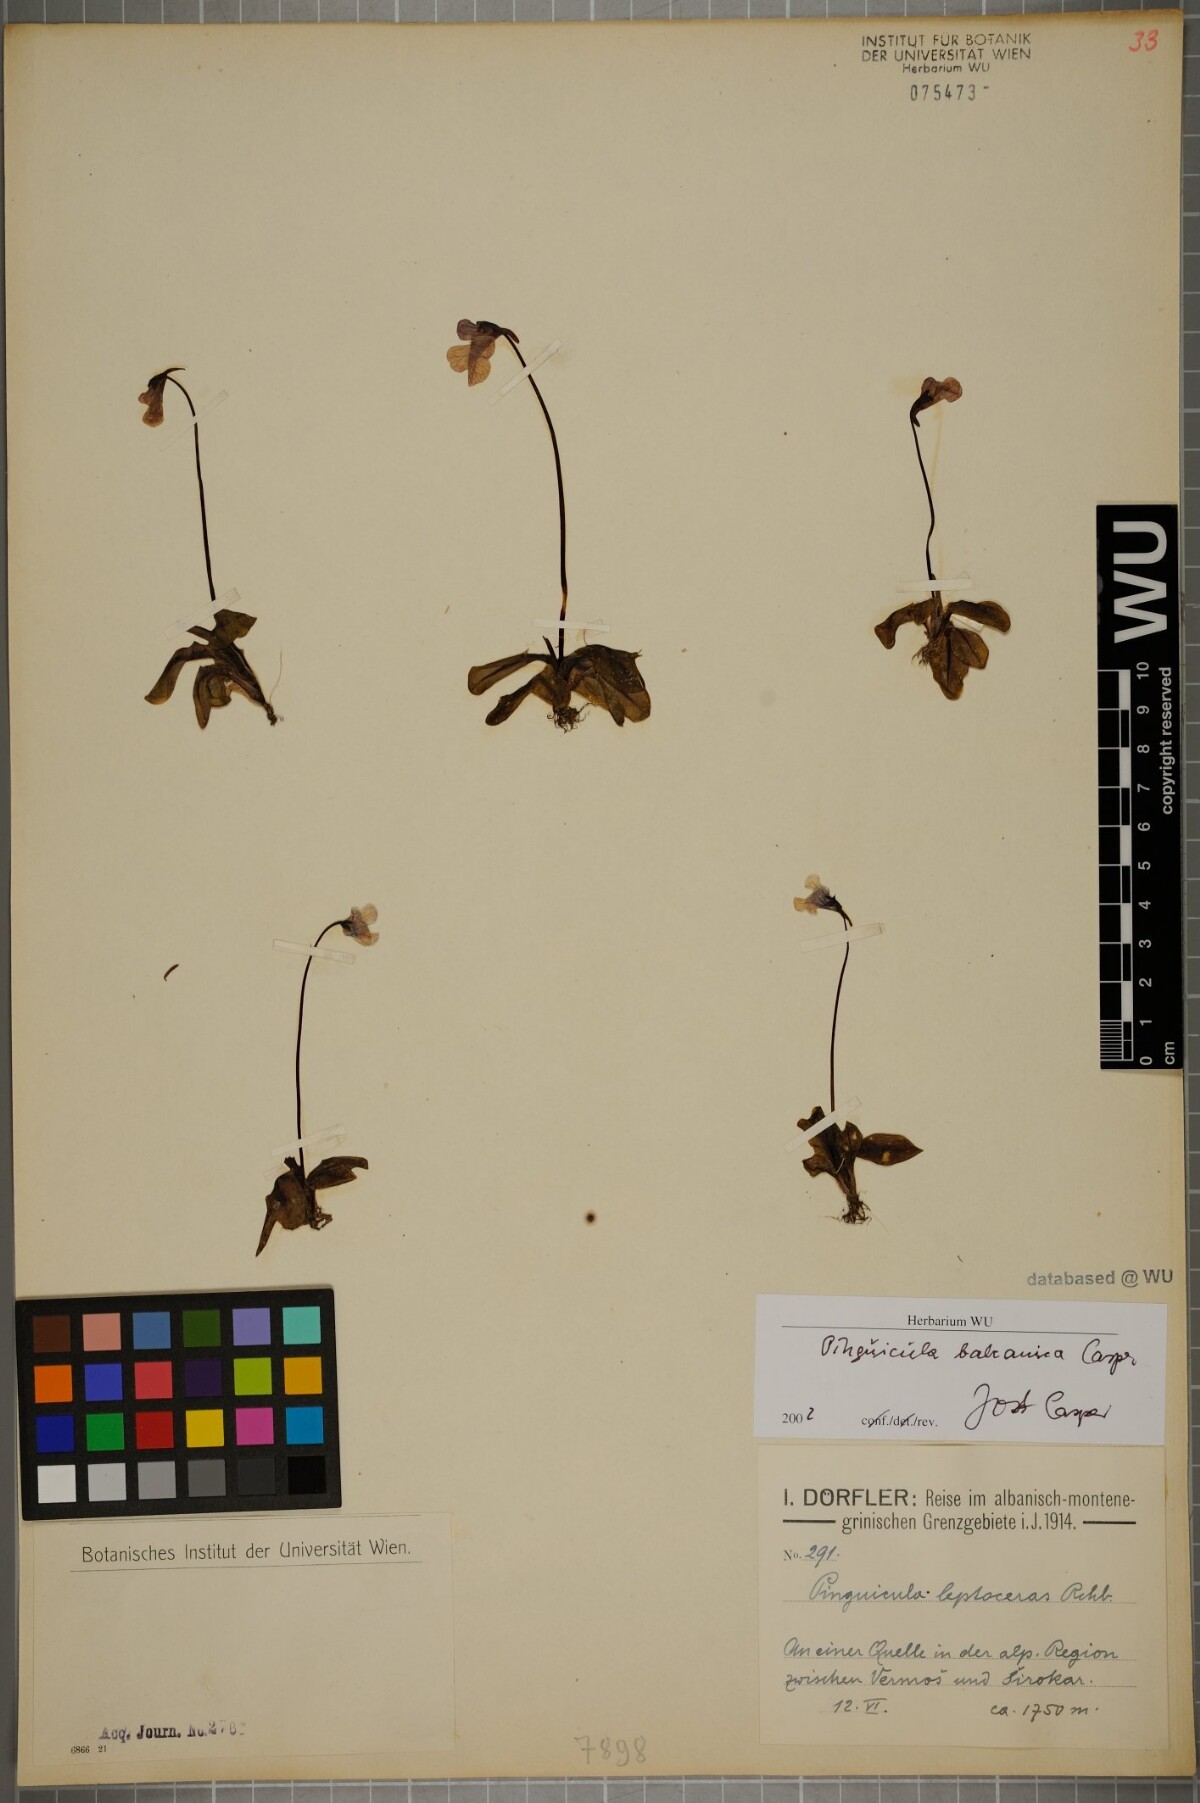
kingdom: Plantae
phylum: Tracheophyta
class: Magnoliopsida
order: Lamiales
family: Lentibulariaceae
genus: Pinguicula
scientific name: Pinguicula balcanica
